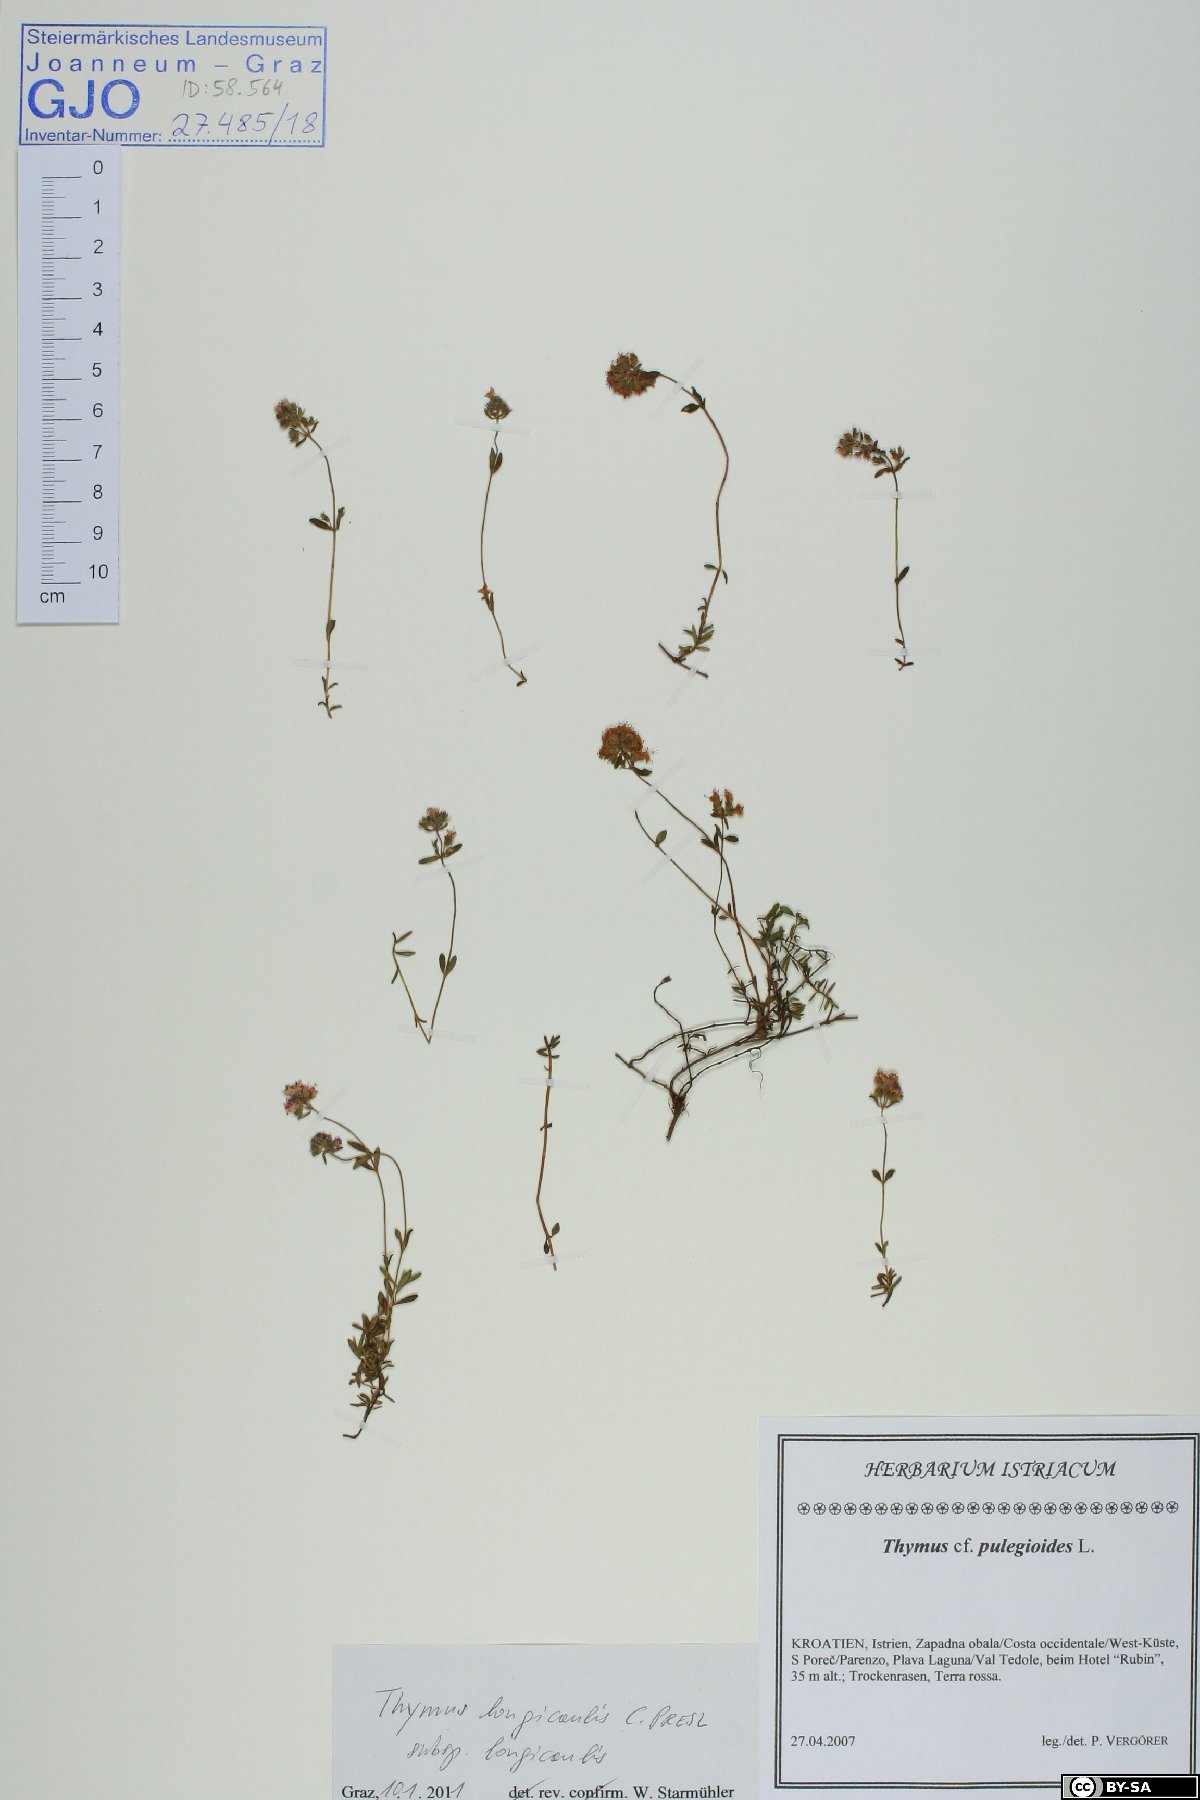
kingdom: Plantae
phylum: Tracheophyta
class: Magnoliopsida
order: Lamiales
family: Lamiaceae
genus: Thymus
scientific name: Thymus longicaulis
